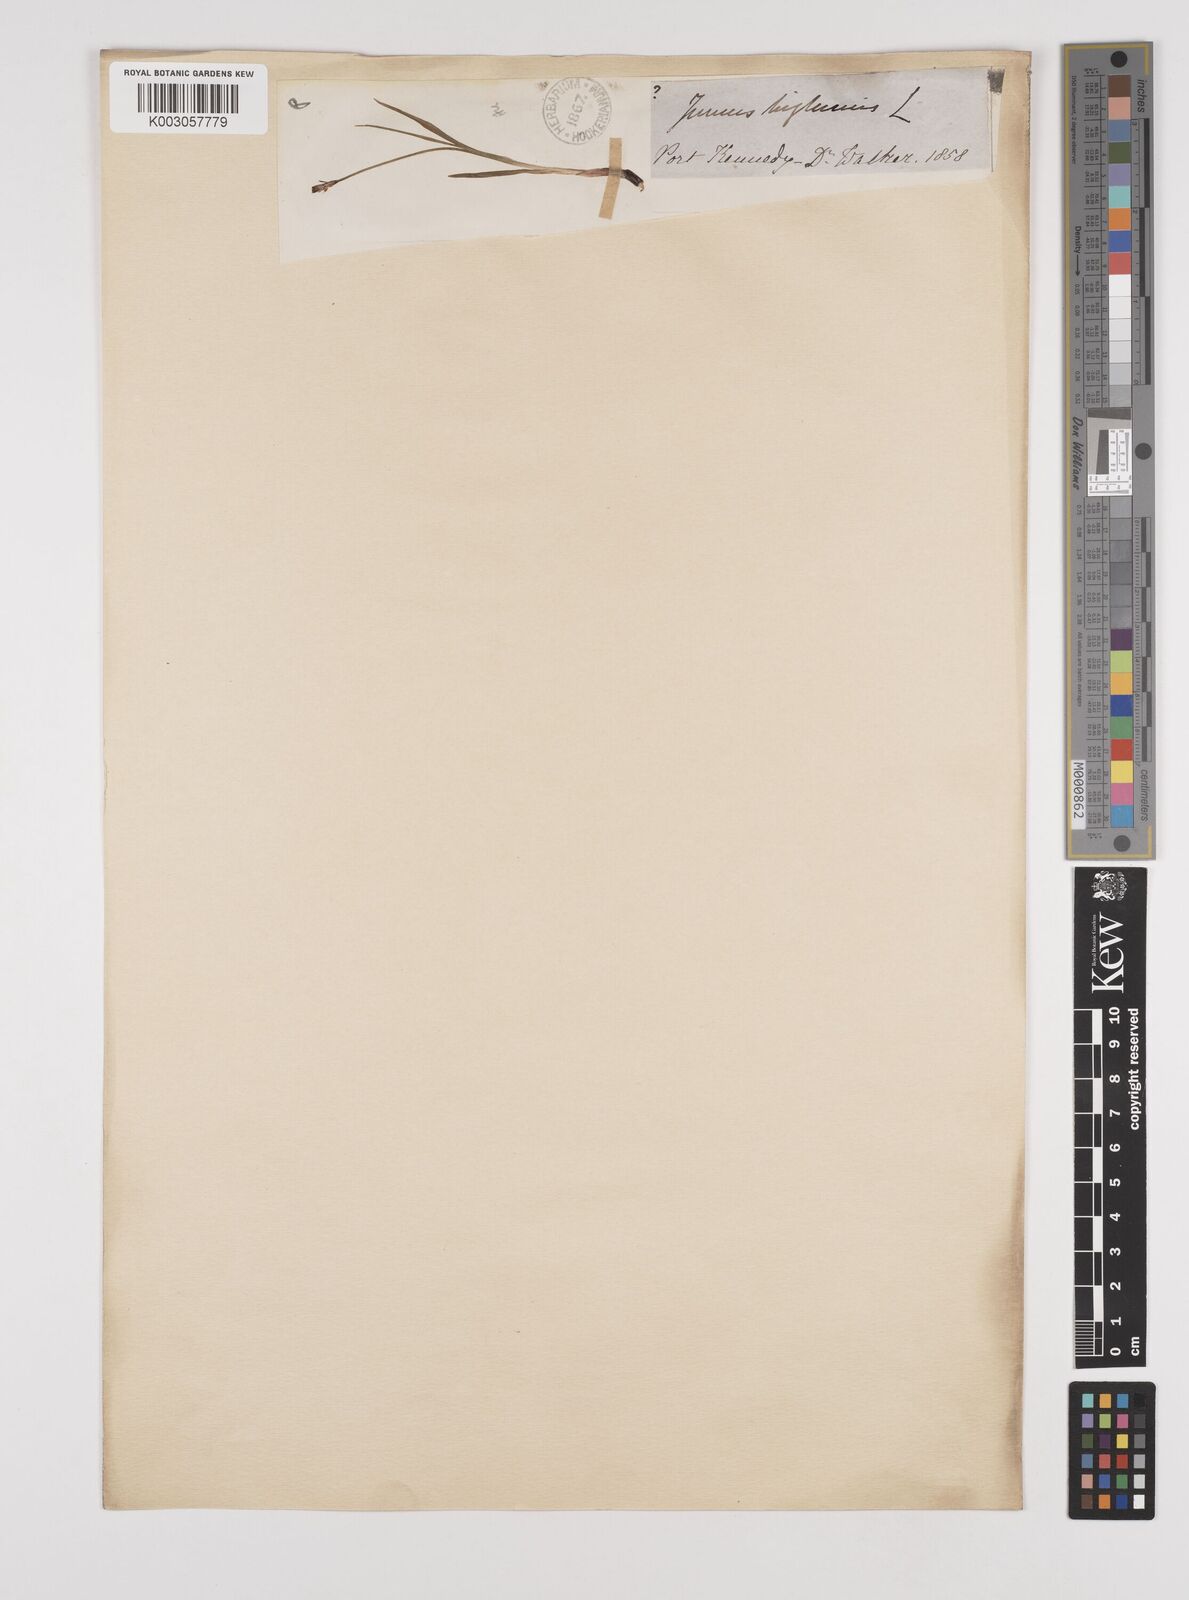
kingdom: Plantae
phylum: Tracheophyta
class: Liliopsida
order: Poales
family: Juncaceae
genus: Juncus
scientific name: Juncus biglumis
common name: Two-flowered rush
